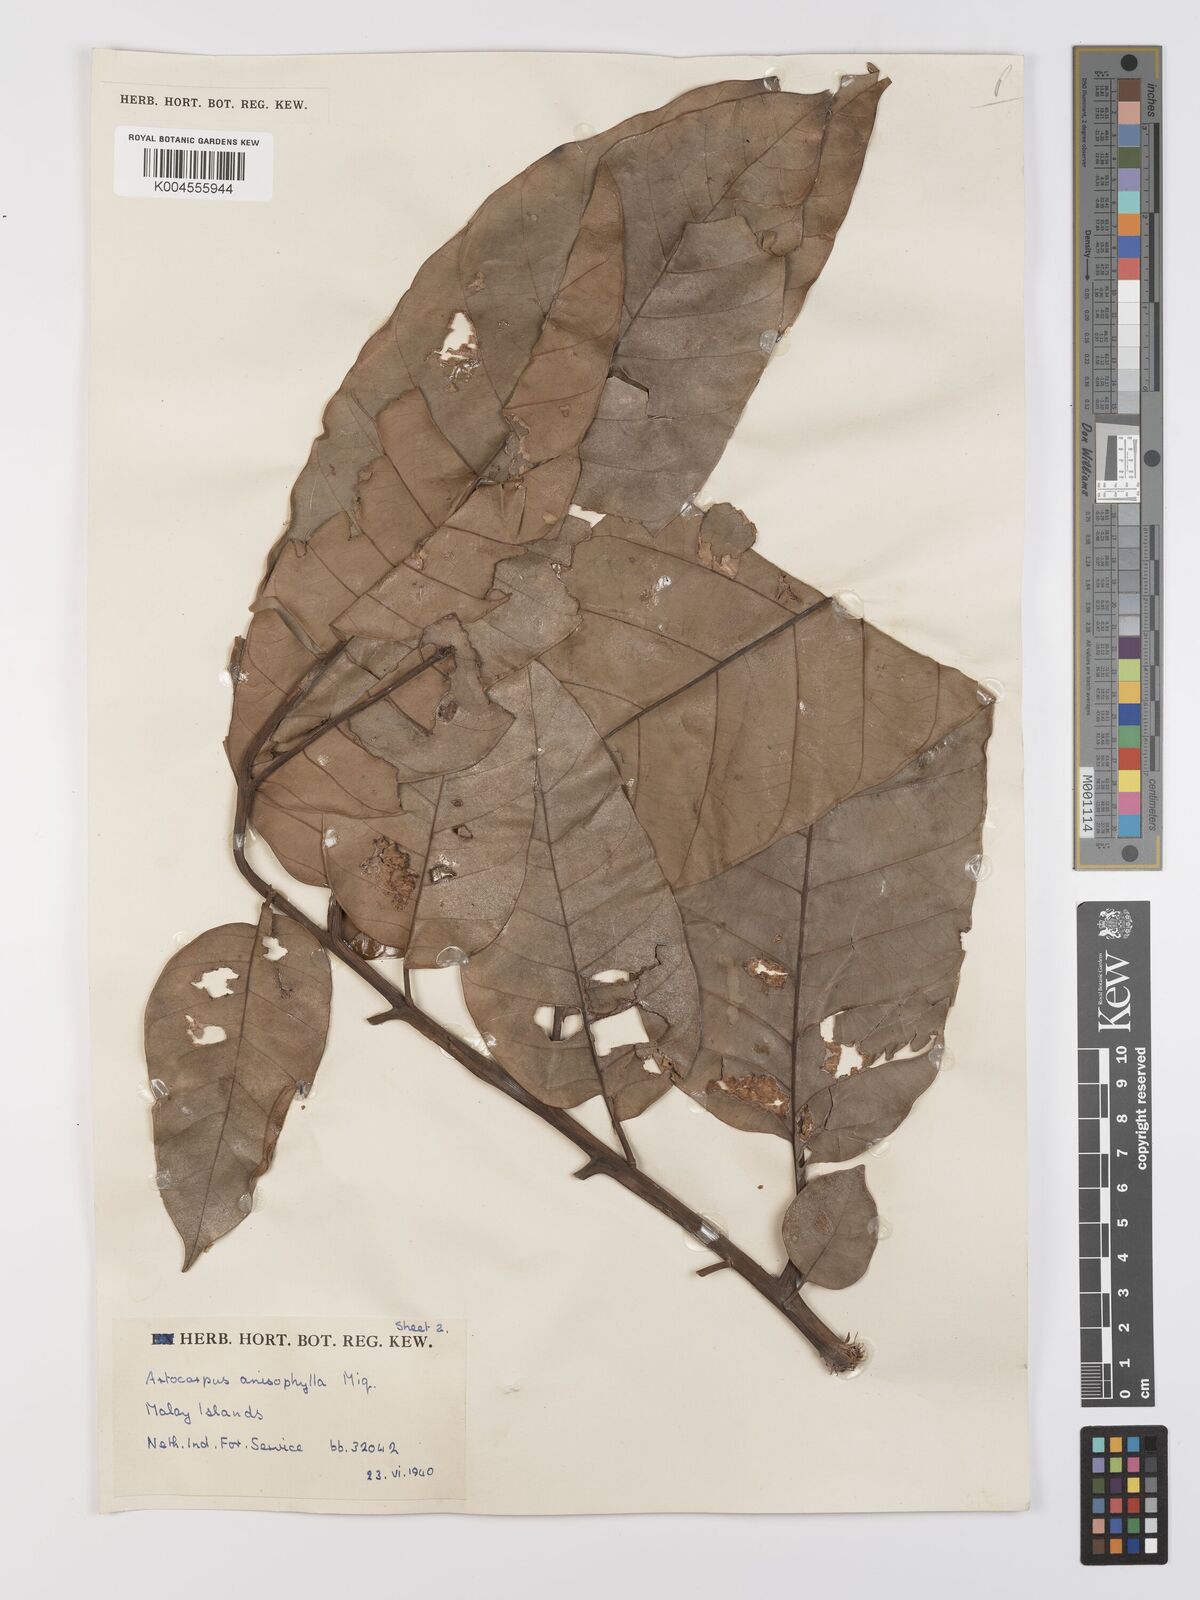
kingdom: Plantae
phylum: Tracheophyta
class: Magnoliopsida
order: Rosales
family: Moraceae
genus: Artocarpus
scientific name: Artocarpus anisophyllus
